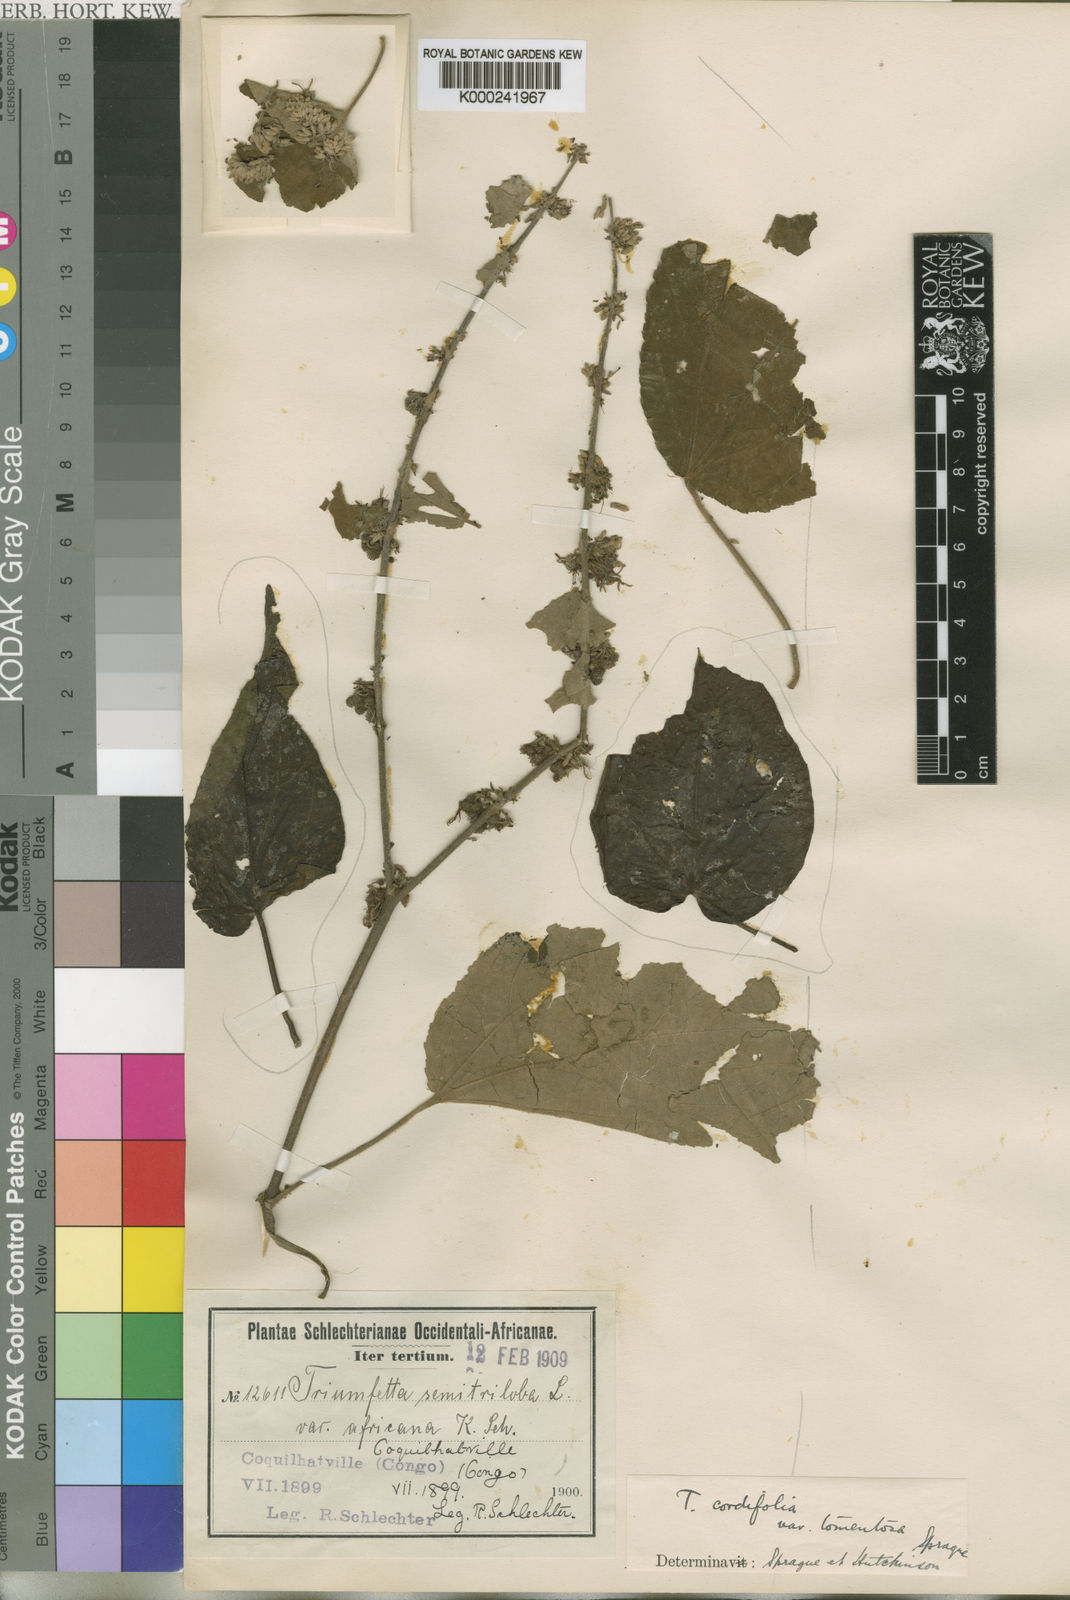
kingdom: Plantae
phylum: Tracheophyta
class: Magnoliopsida
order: Malvales
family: Malvaceae
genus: Triumfetta
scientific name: Triumfetta
